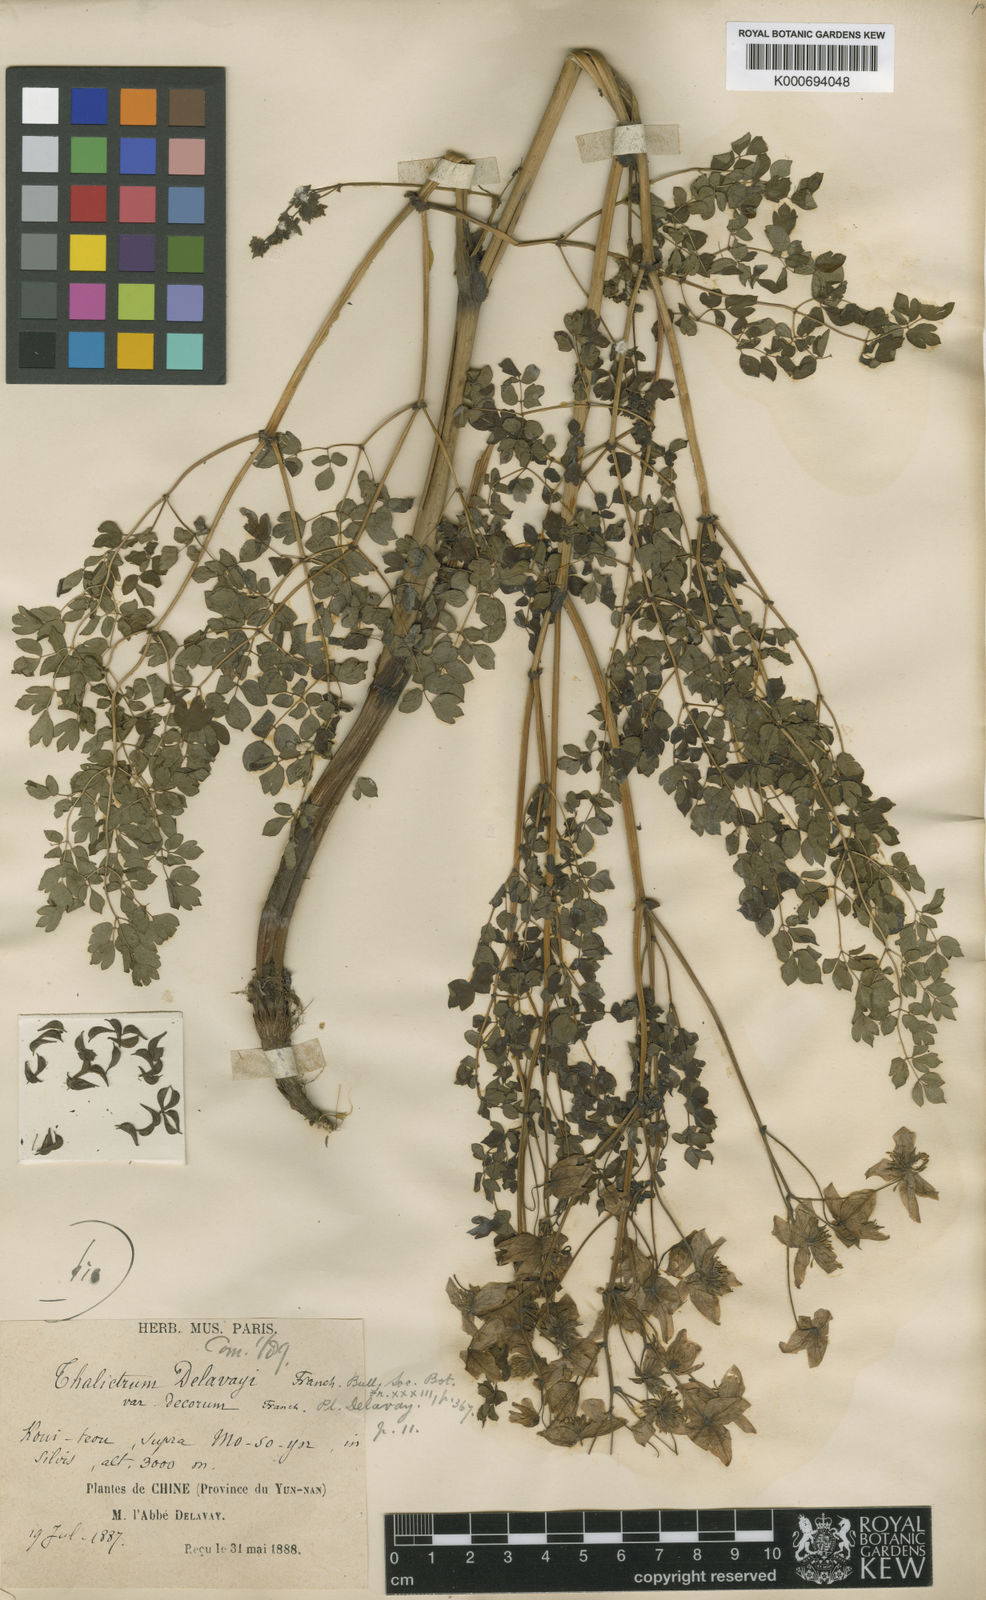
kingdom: Plantae
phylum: Tracheophyta
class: Magnoliopsida
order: Ranunculales
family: Ranunculaceae
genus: Thalictrum
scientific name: Thalictrum delavayi
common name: Chinese meadow-rue
